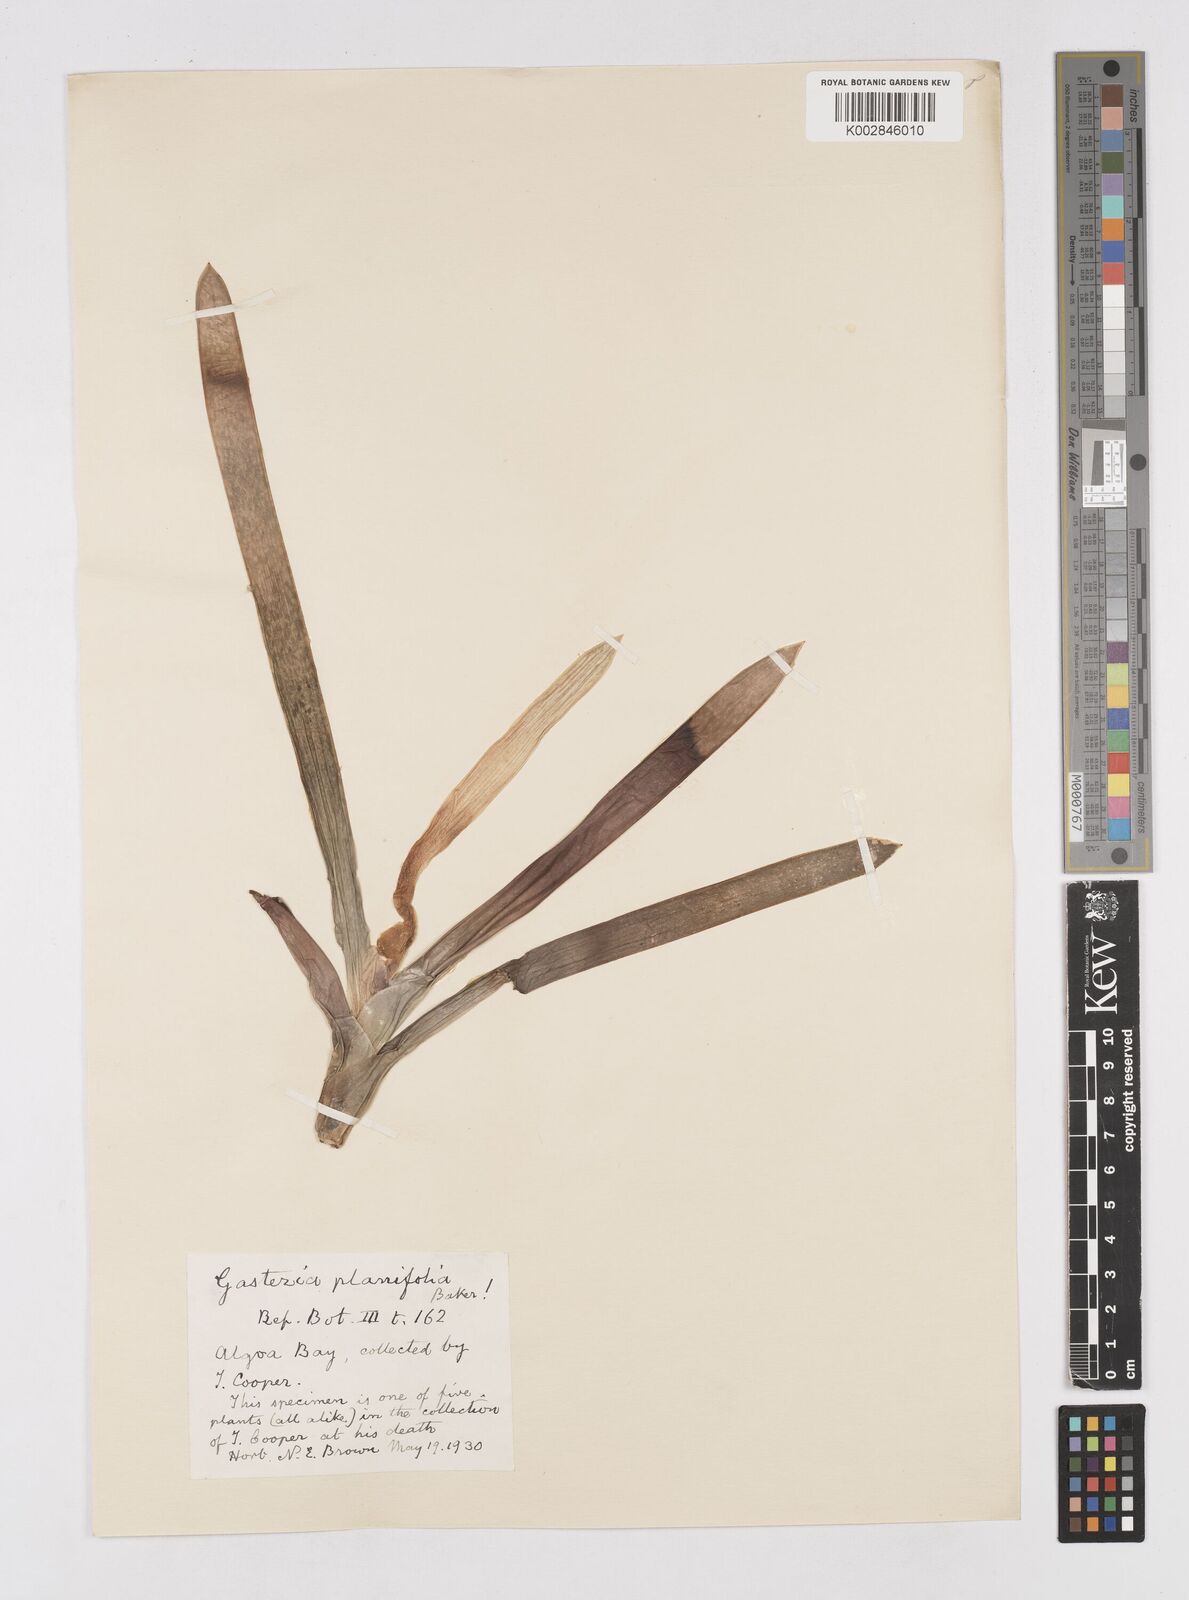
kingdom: Plantae
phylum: Tracheophyta
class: Liliopsida
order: Asparagales
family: Asphodelaceae
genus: Gasteria
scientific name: Gasteria obliqua
